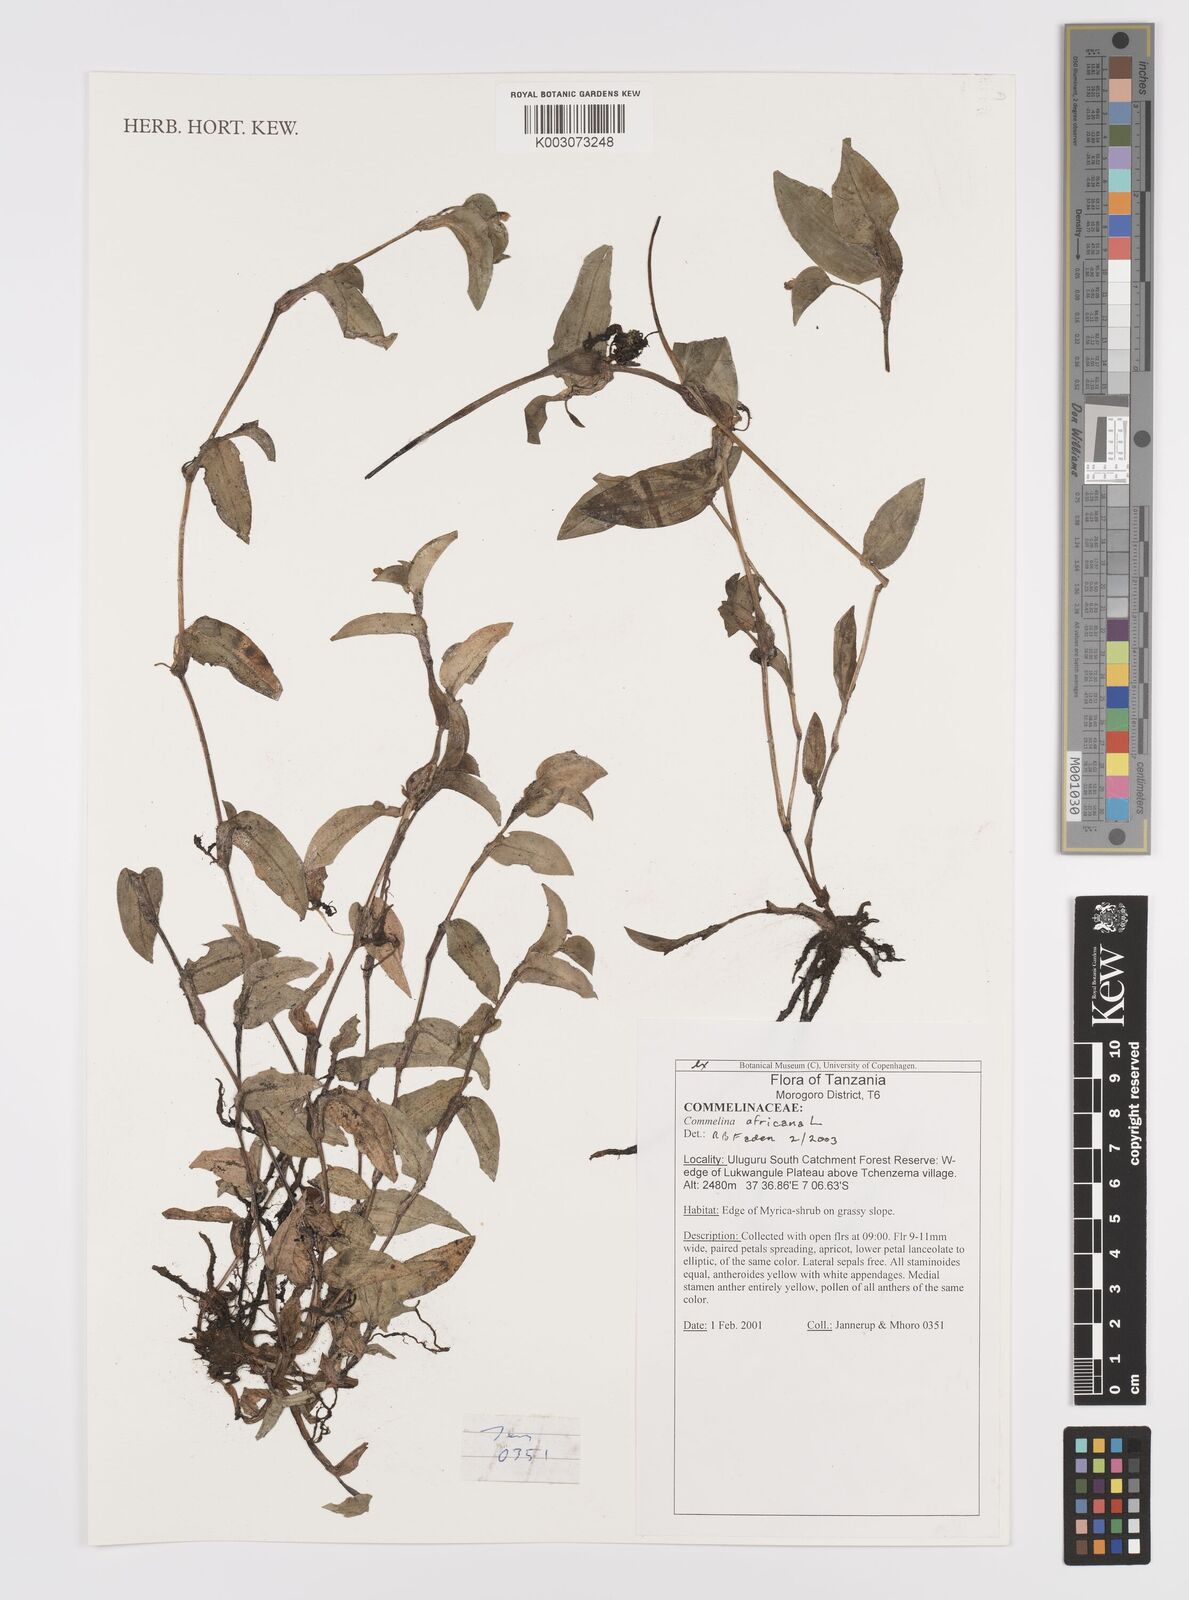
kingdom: Plantae
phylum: Tracheophyta
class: Liliopsida
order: Commelinales
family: Commelinaceae
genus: Commelina
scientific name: Commelina africana
